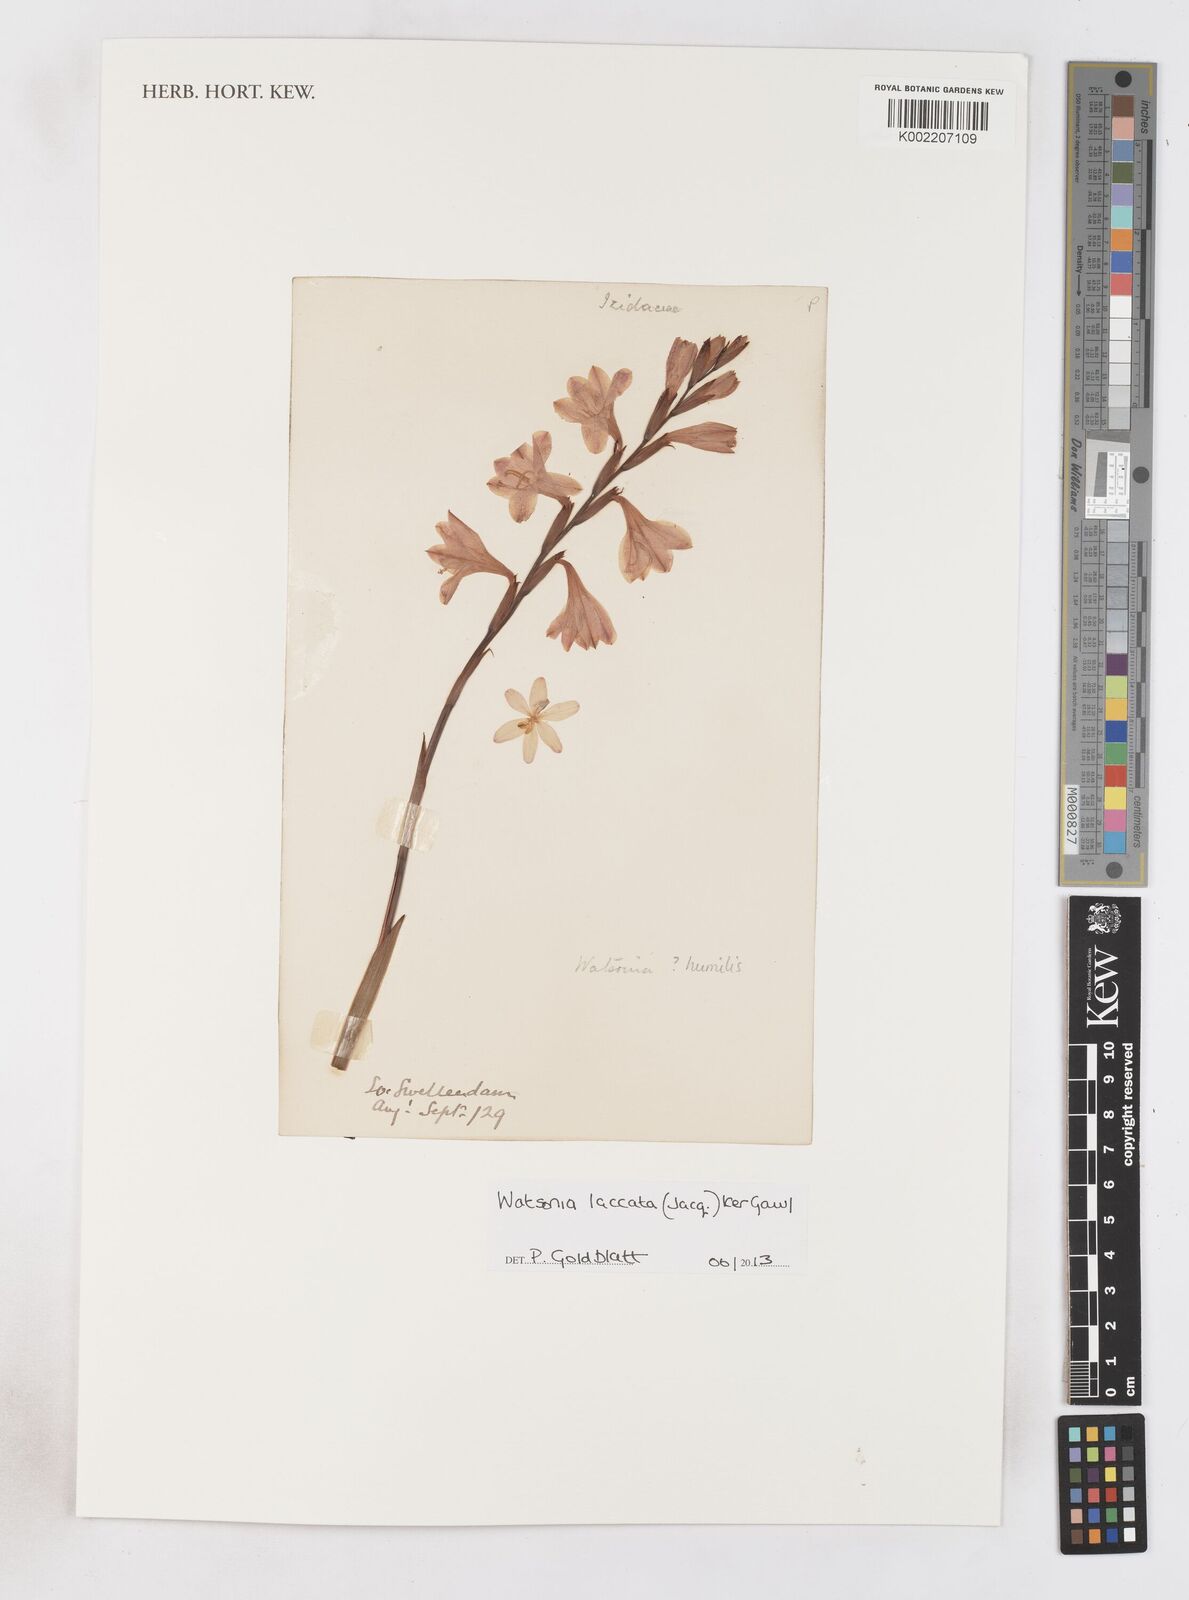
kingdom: Plantae
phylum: Tracheophyta
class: Liliopsida
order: Asparagales
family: Iridaceae
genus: Watsonia
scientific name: Watsonia laccata
